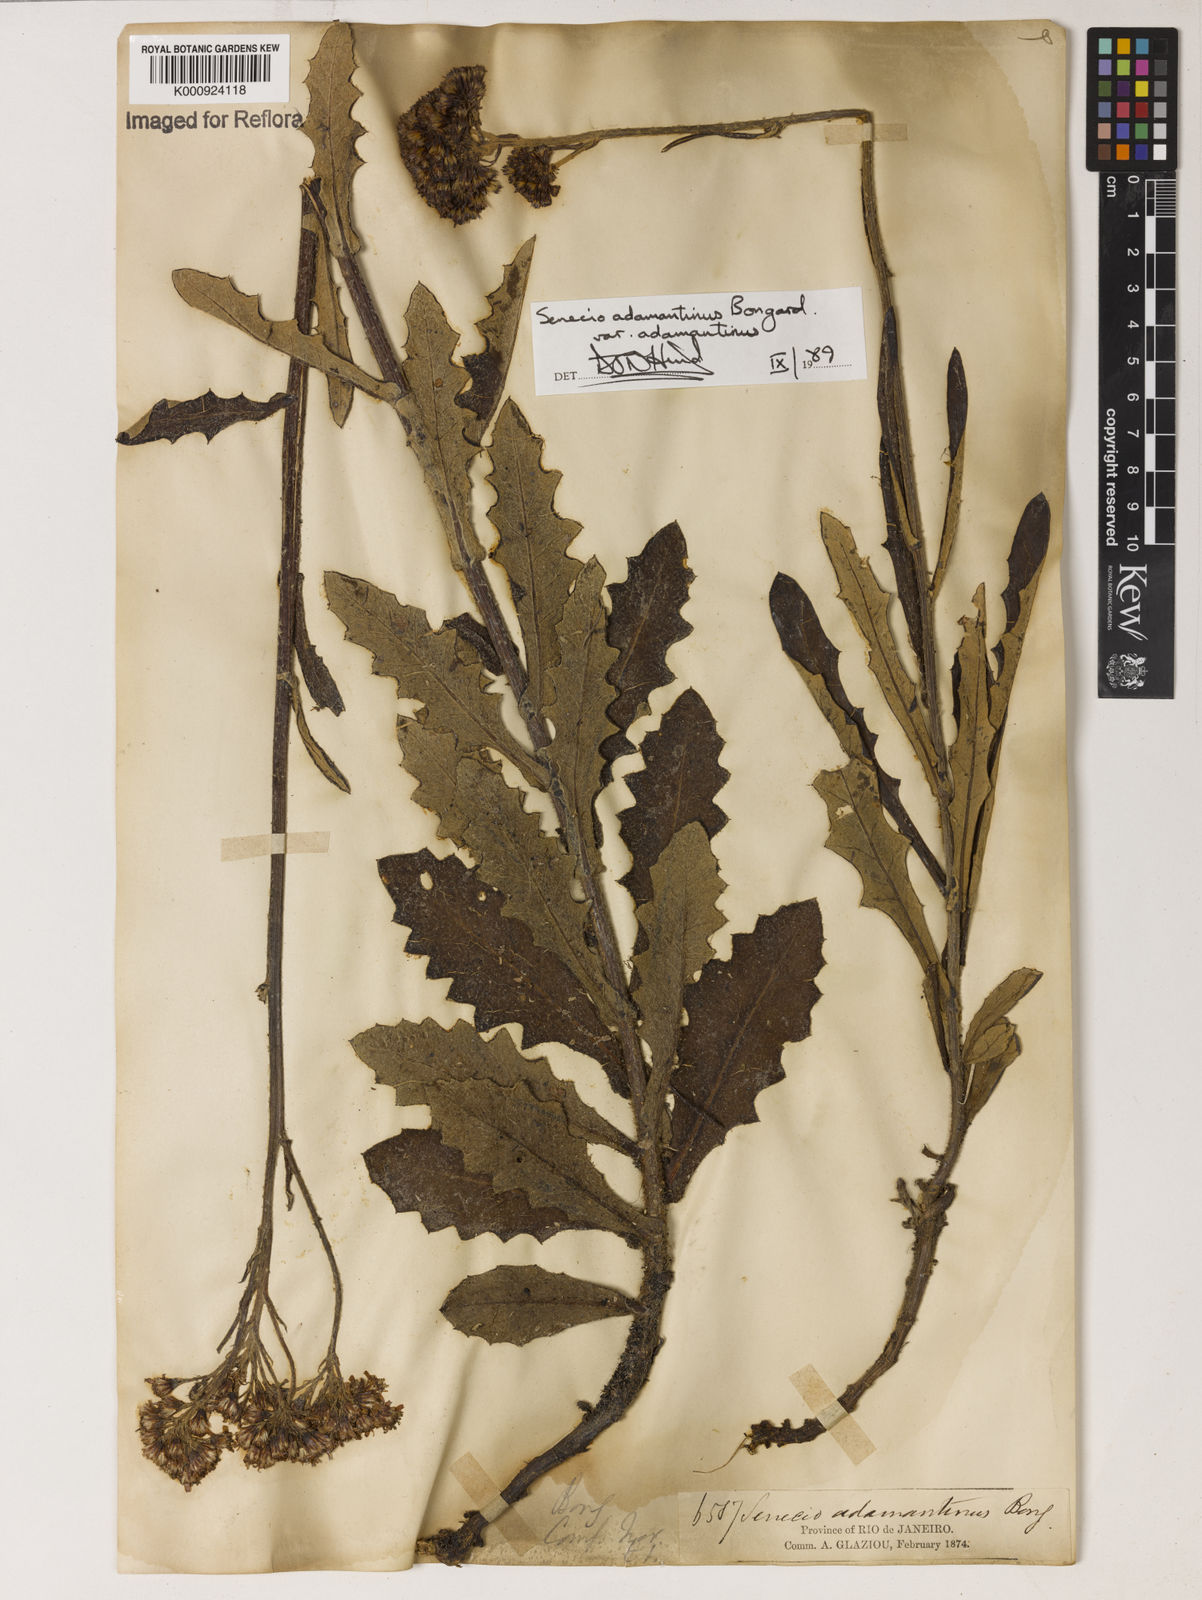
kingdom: Plantae
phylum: Tracheophyta
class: Magnoliopsida
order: Asterales
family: Asteraceae
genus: Senecio
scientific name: Senecio
